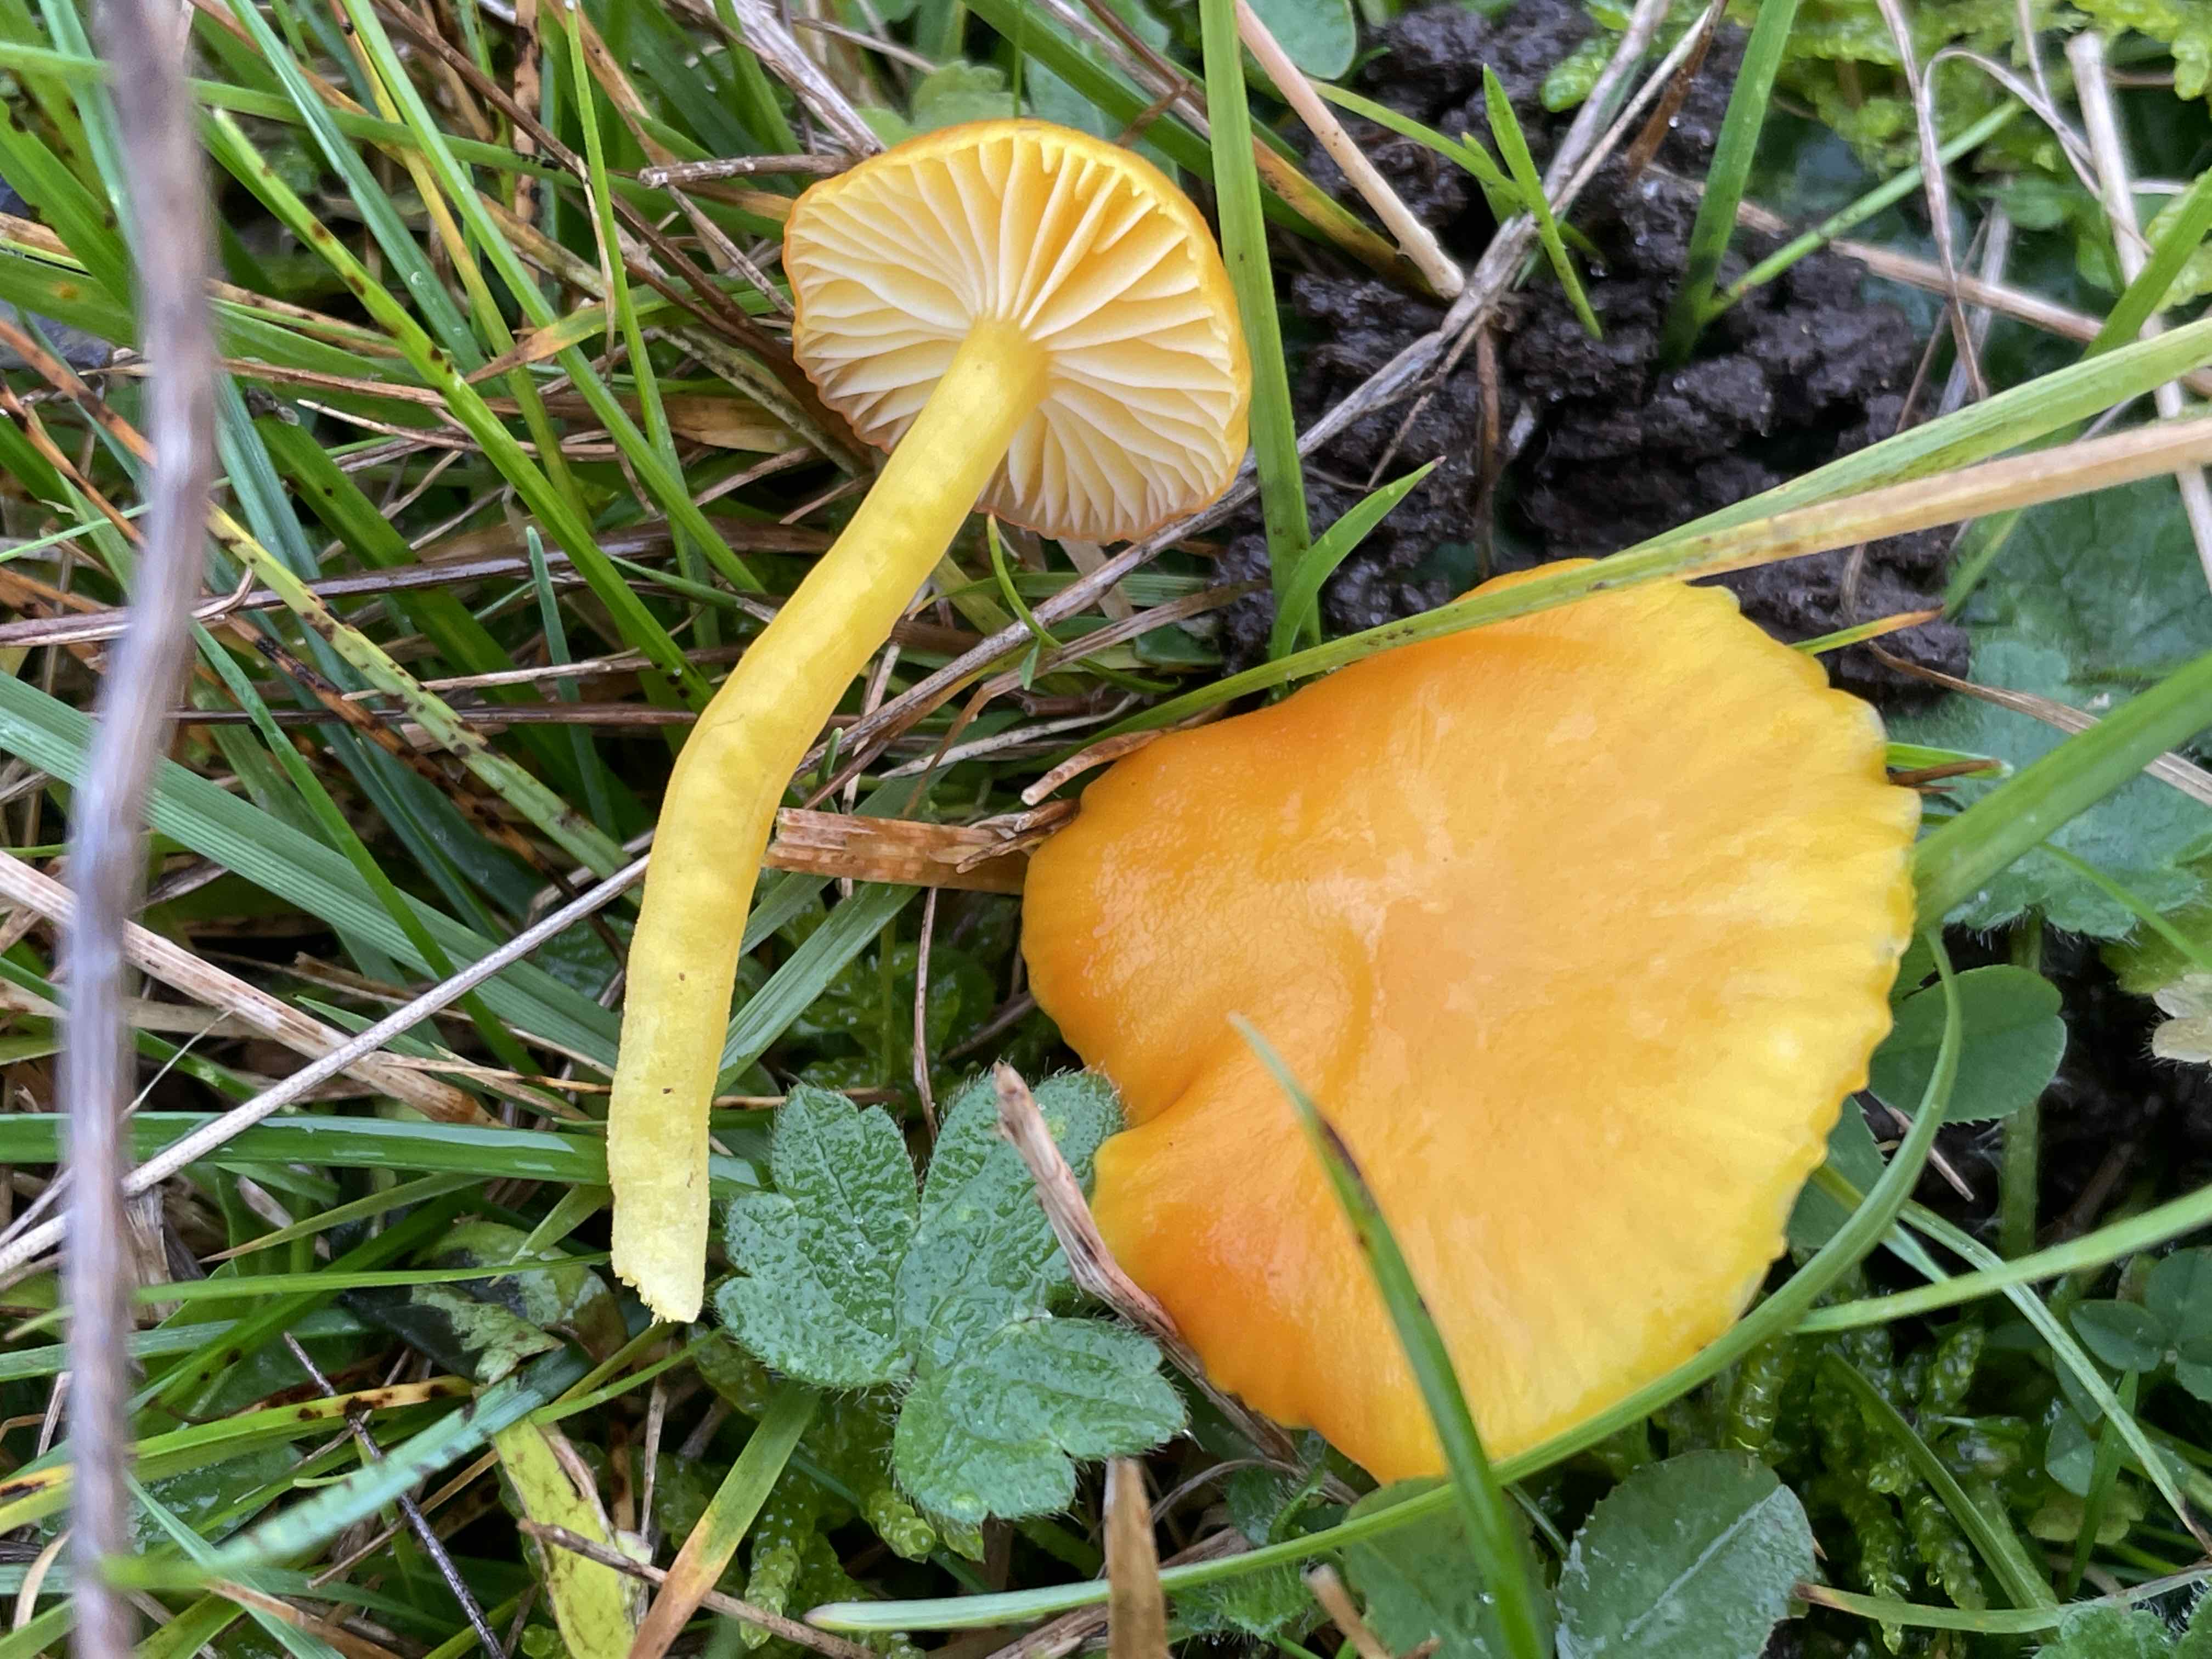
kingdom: Fungi
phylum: Basidiomycota
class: Agaricomycetes
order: Agaricales
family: Hygrophoraceae
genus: Hygrocybe
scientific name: Hygrocybe ceracea
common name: voksgul vokshat
